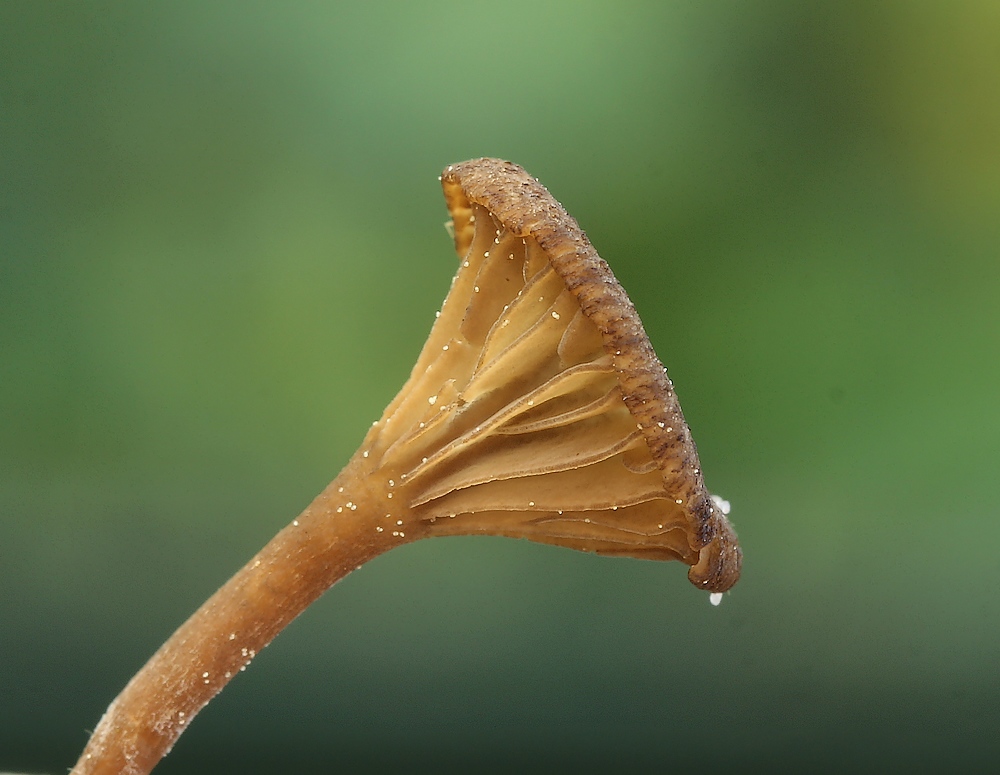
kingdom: Fungi
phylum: Basidiomycota
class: Agaricomycetes
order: Agaricales
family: Hygrophoraceae
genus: Arrhenia
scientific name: Arrhenia gerardiana
